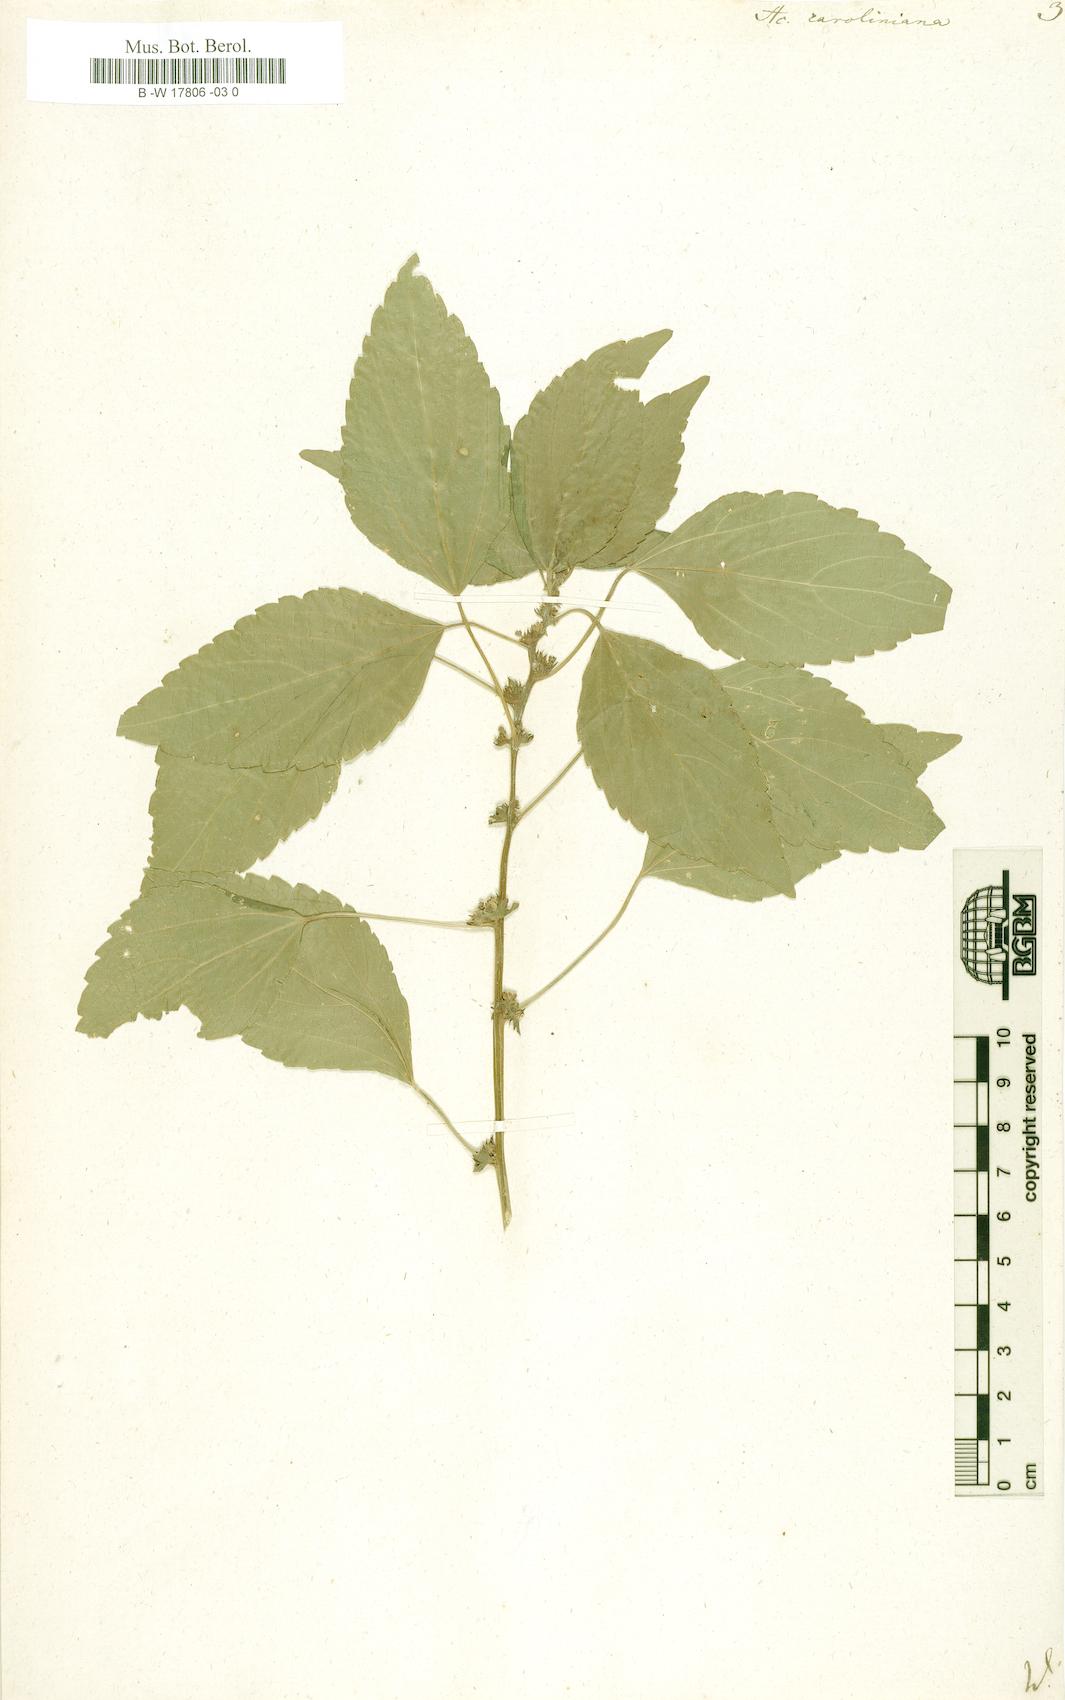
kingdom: Plantae
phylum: Tracheophyta
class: Magnoliopsida
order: Malpighiales
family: Euphorbiaceae
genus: Acalypha
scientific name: Acalypha virginica
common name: Virginia copperleaf
